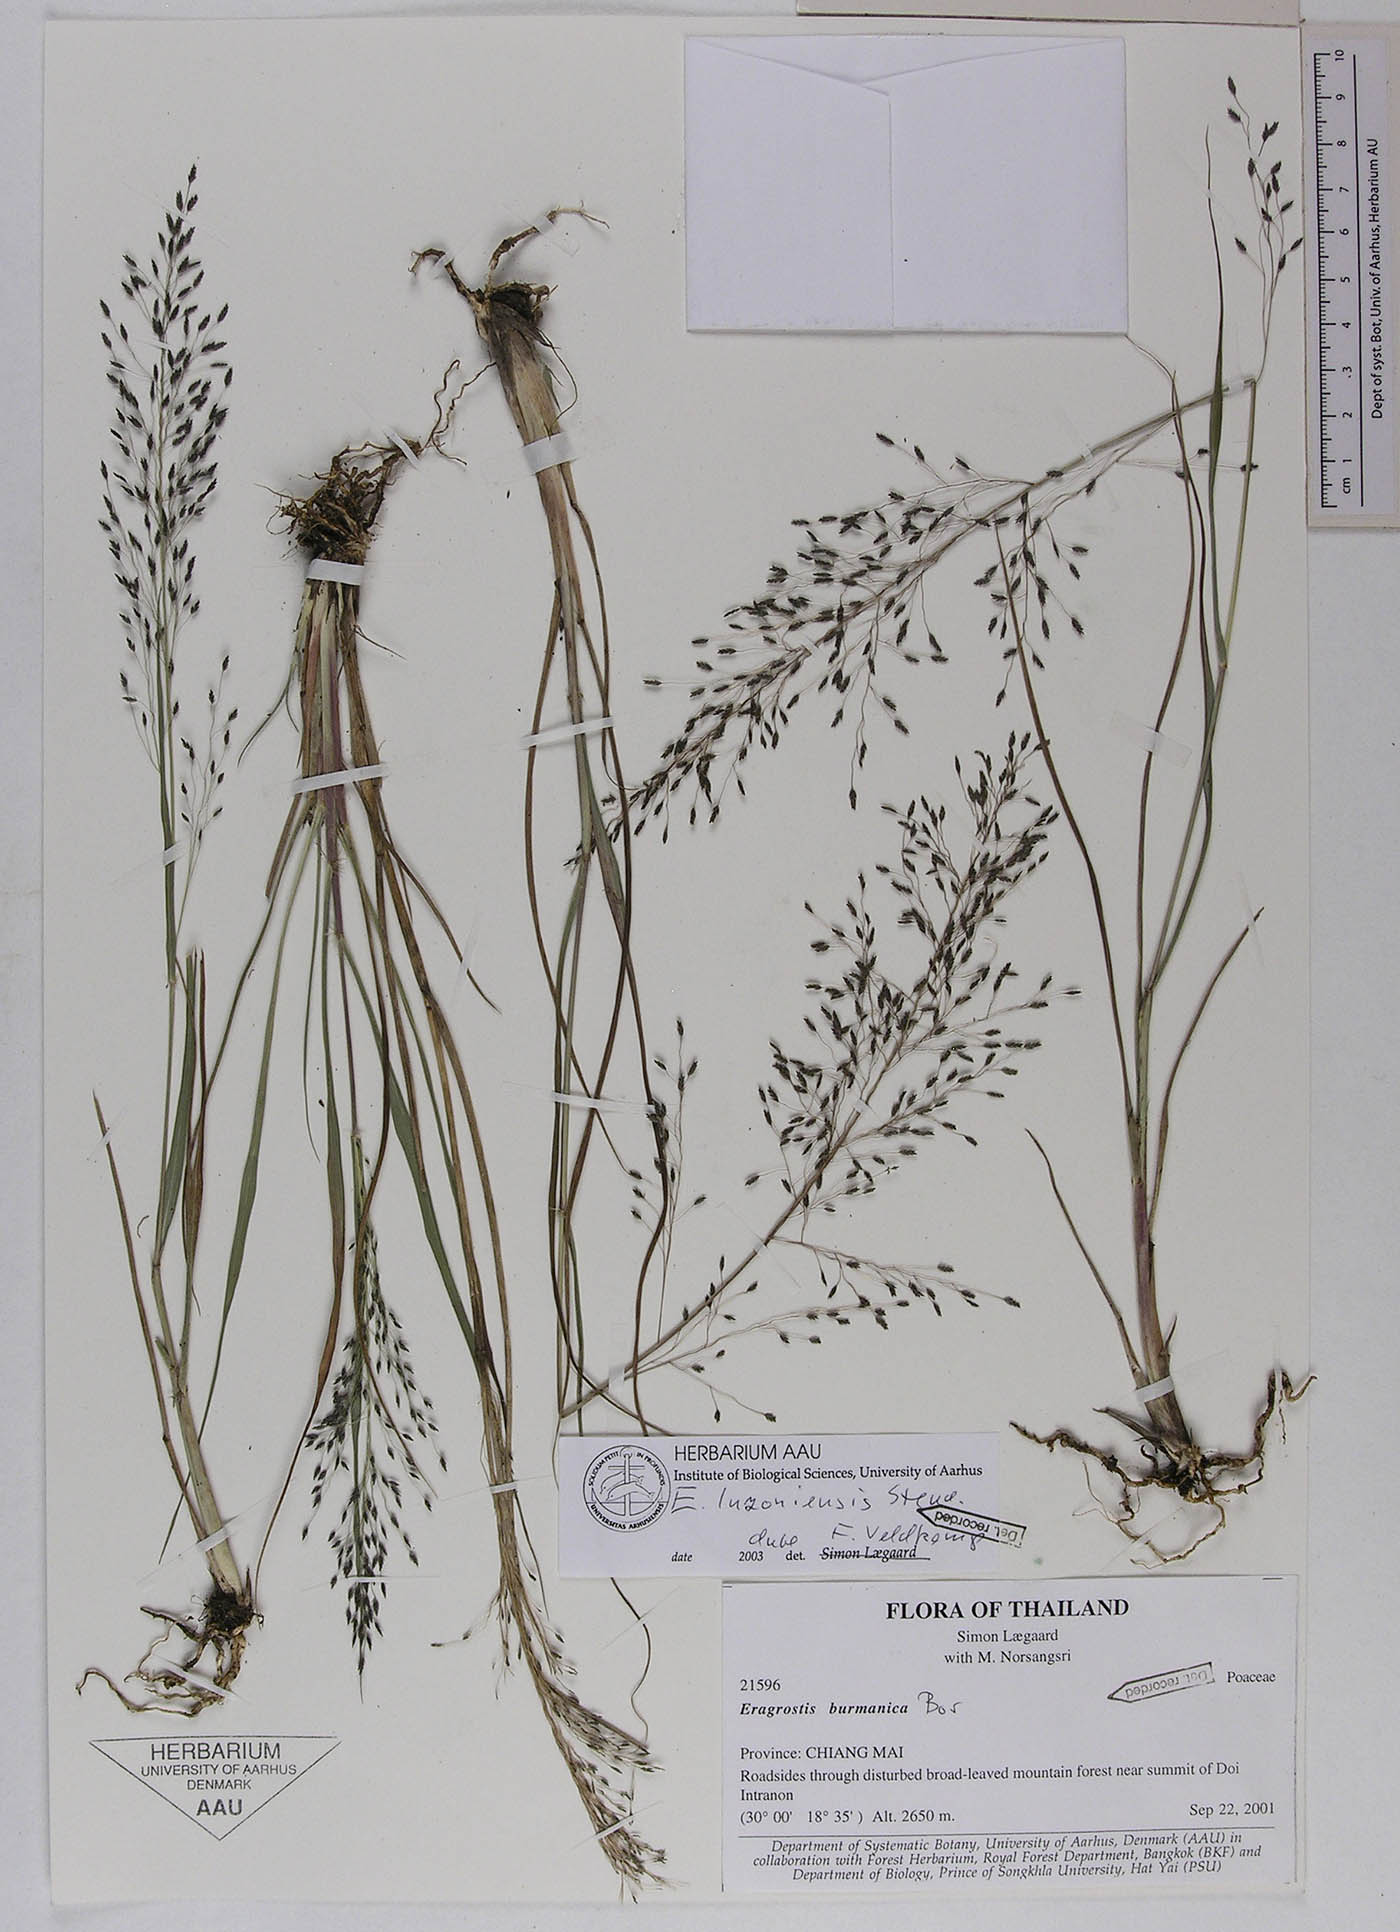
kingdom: Plantae
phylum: Tracheophyta
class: Liliopsida
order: Poales
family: Poaceae
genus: Eragrostis
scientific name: Eragrostis nigra
